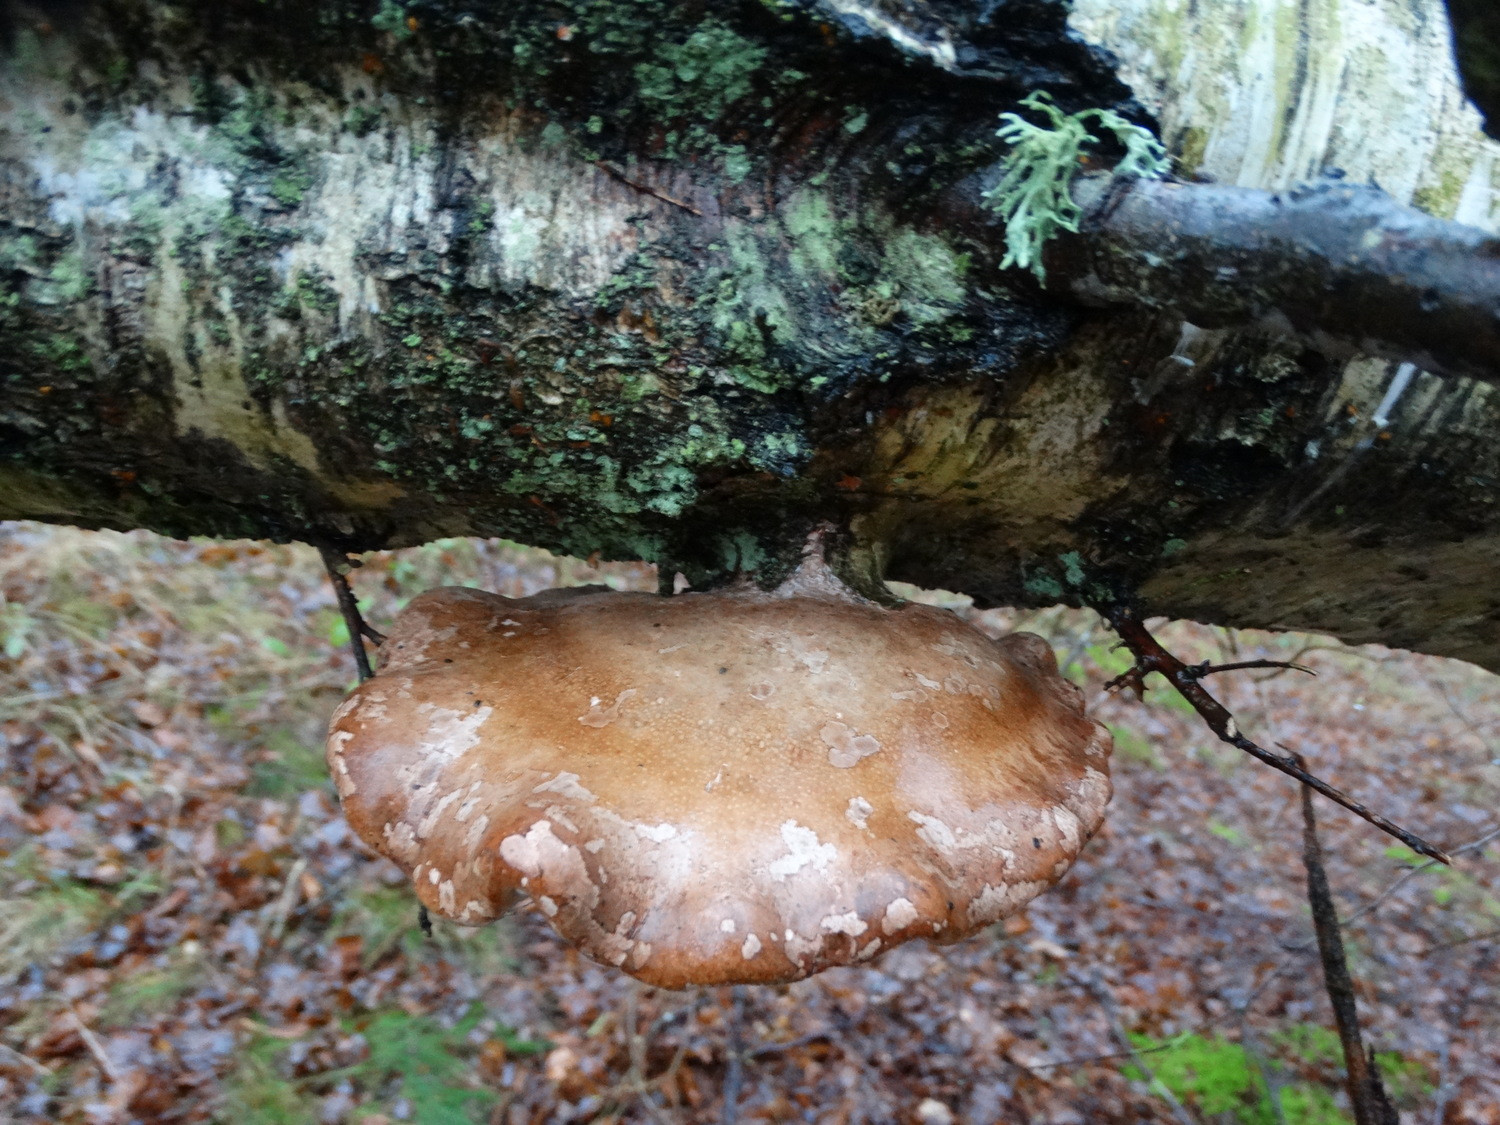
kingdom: Fungi
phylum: Basidiomycota
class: Agaricomycetes
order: Polyporales
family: Fomitopsidaceae
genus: Fomitopsis
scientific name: Fomitopsis betulina
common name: birkeporesvamp
